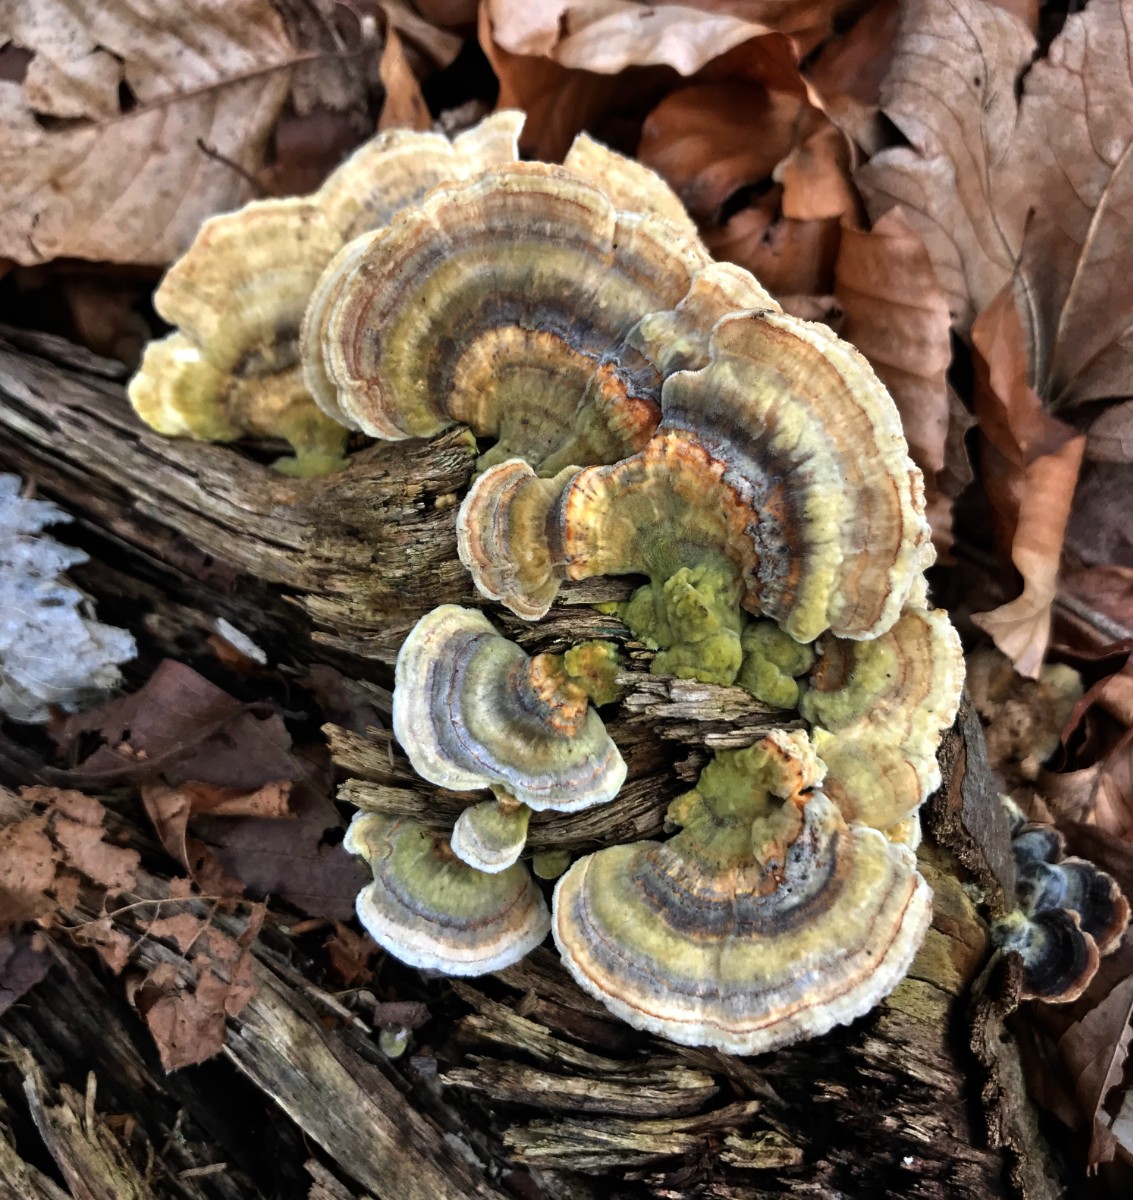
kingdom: Fungi
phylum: Basidiomycota
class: Agaricomycetes
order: Polyporales
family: Polyporaceae
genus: Trametes
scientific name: Trametes versicolor
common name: broget læderporesvamp
